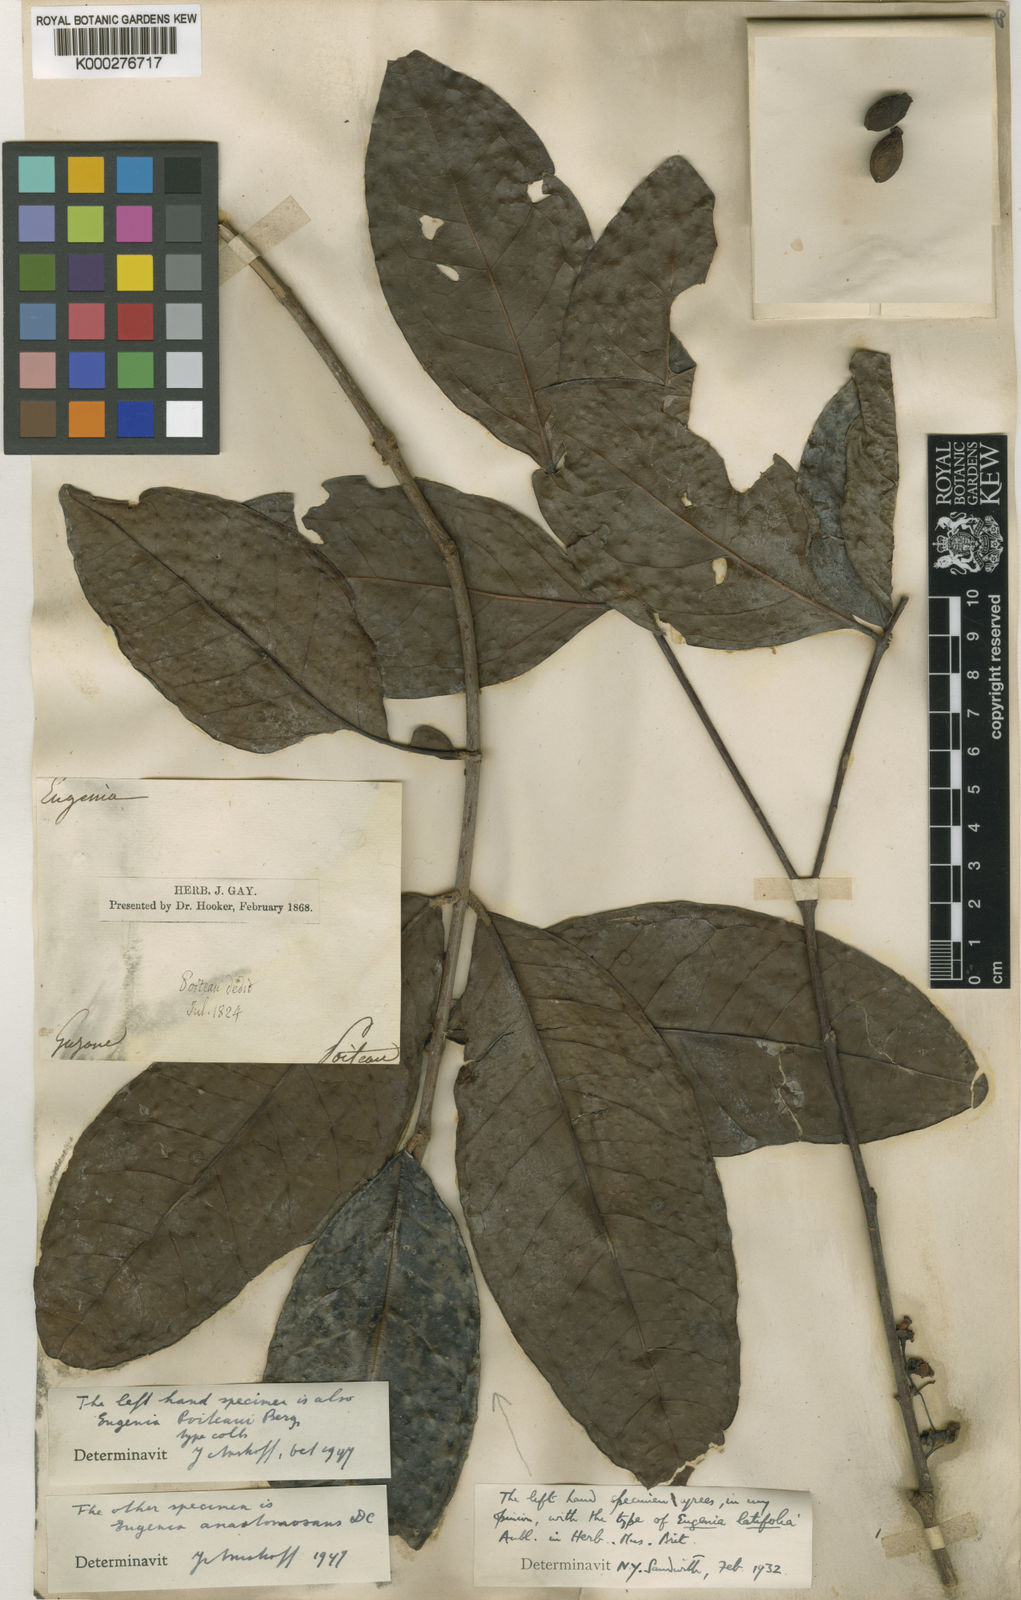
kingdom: Plantae
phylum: Tracheophyta
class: Magnoliopsida
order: Myrtales
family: Myrtaceae
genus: Eugenia
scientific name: Eugenia latifolia
